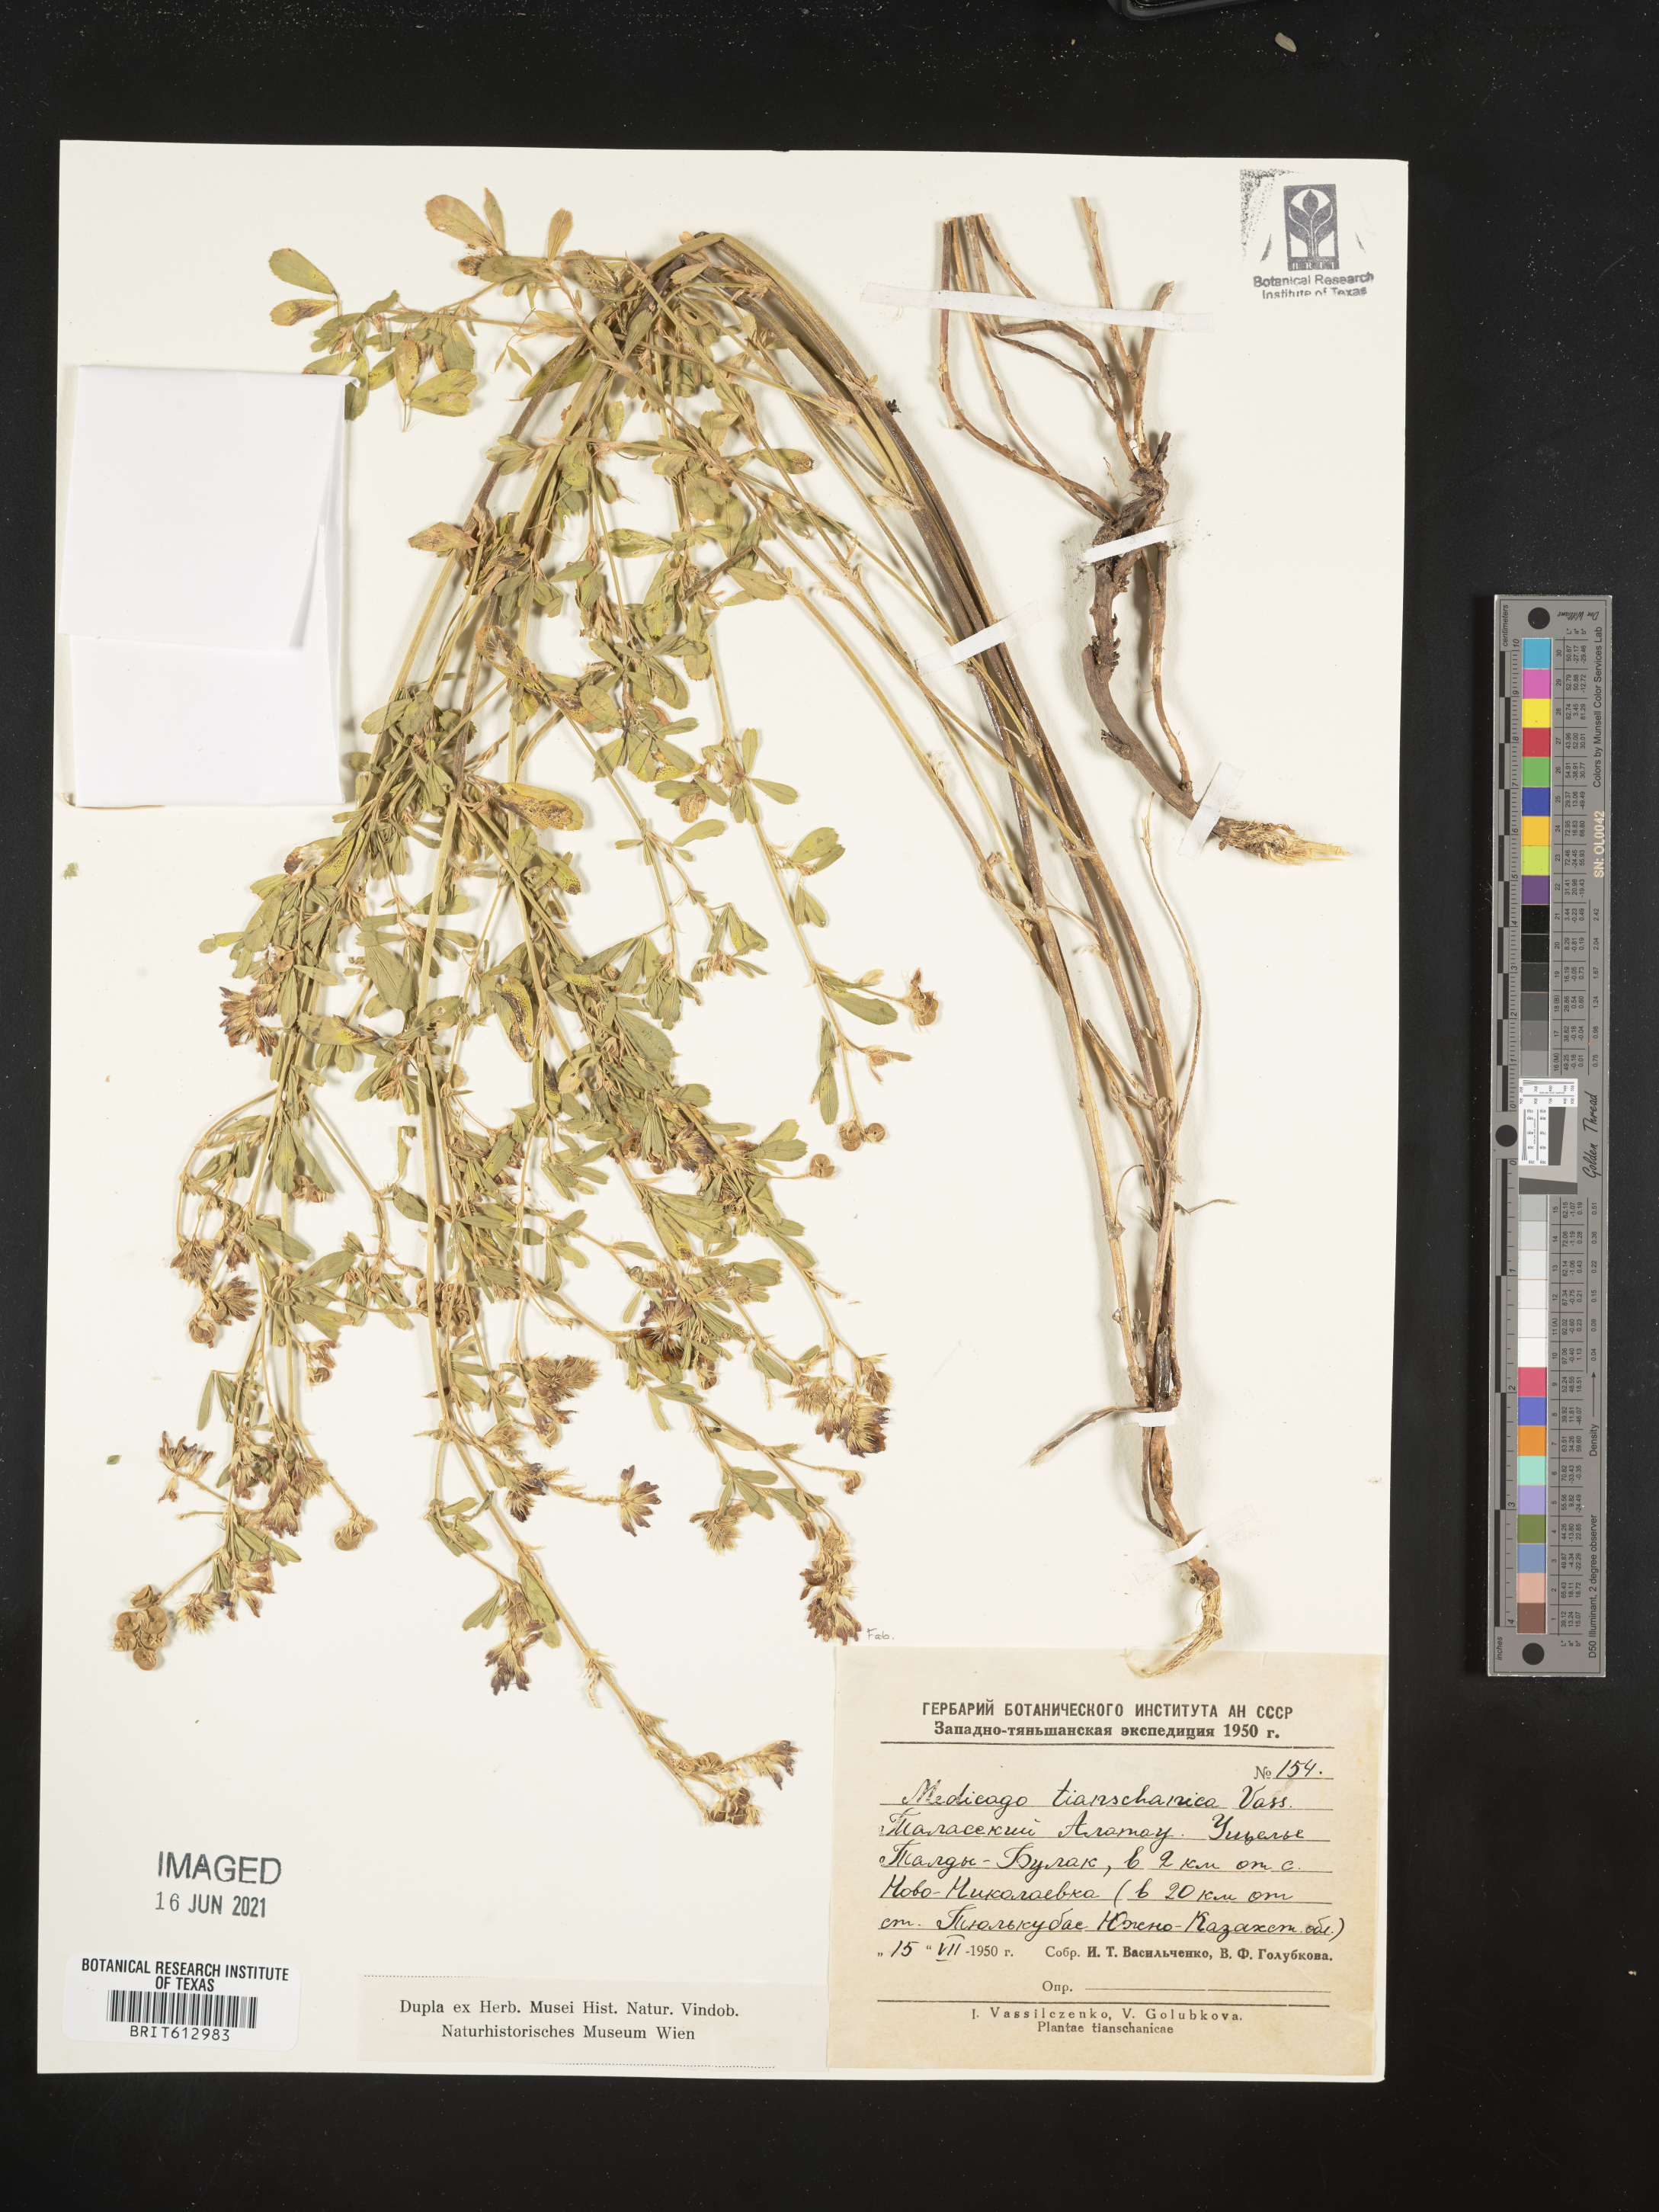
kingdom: Plantae
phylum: Tracheophyta
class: Magnoliopsida
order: Fabales
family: Fabaceae
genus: Medicago
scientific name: Medicago varia
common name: Sand lucerne
